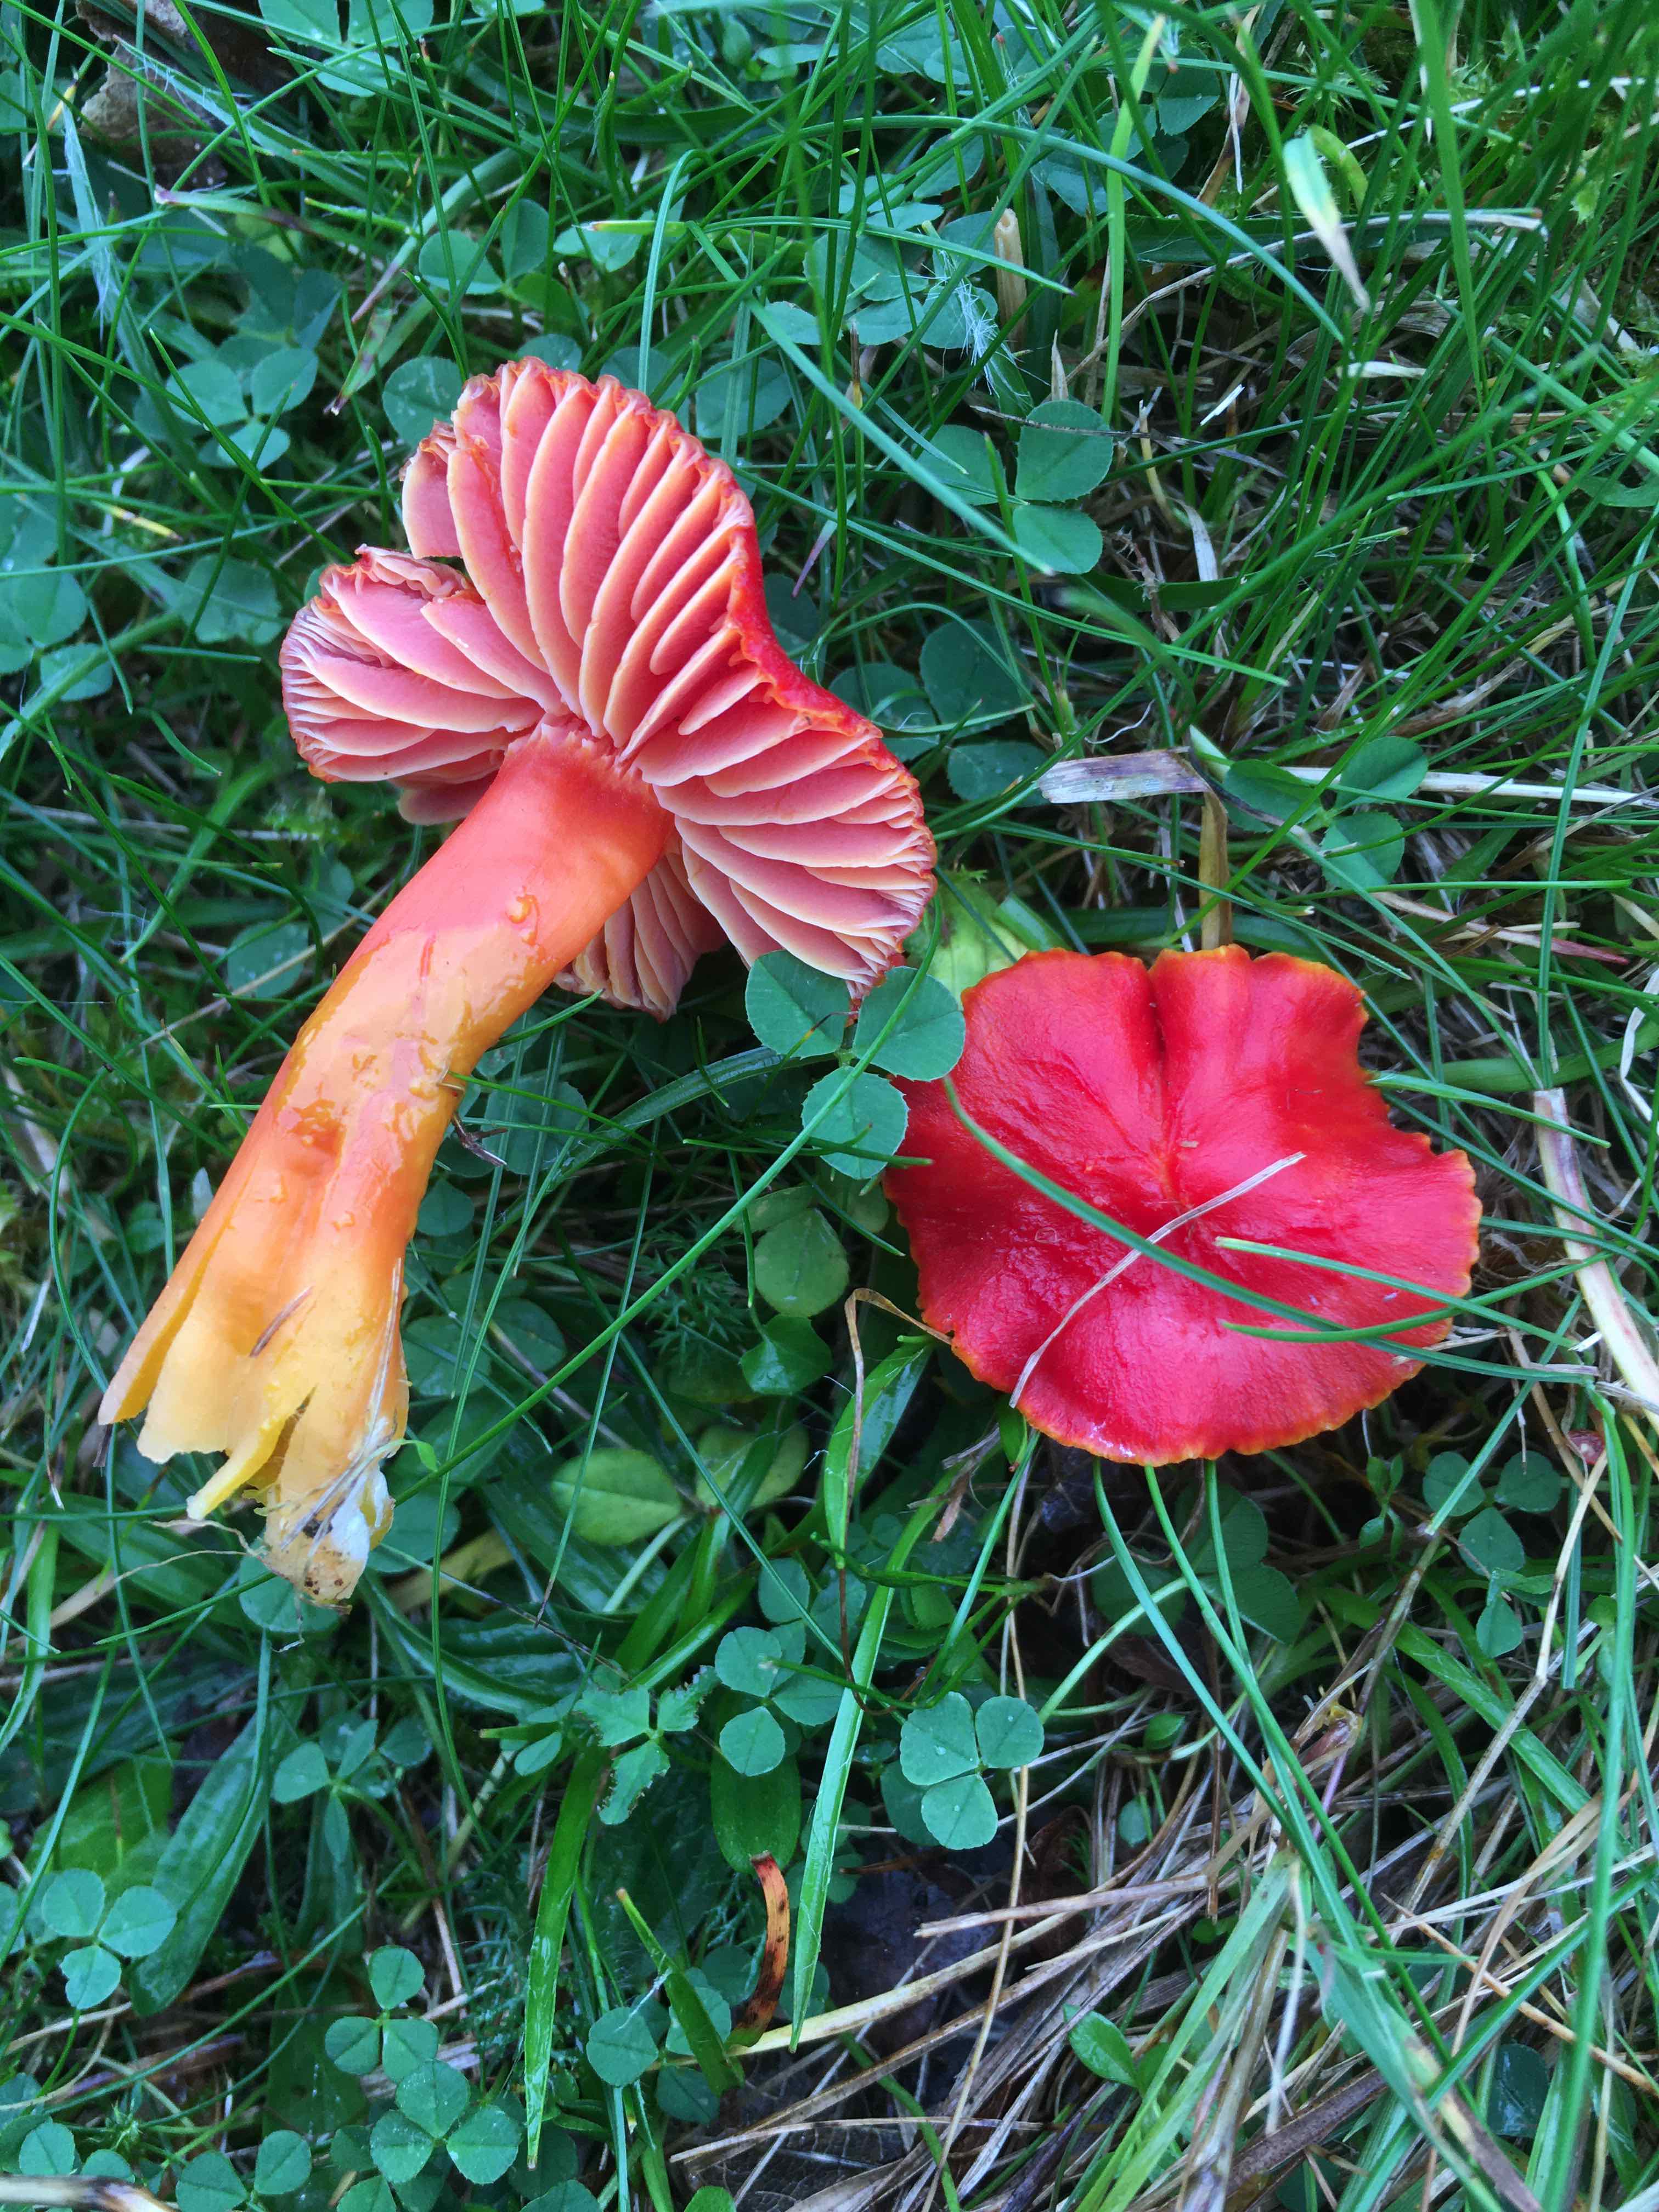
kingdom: Fungi
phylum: Basidiomycota
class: Agaricomycetes
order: Agaricales
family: Hygrophoraceae
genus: Hygrocybe
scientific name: Hygrocybe coccinea
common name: cinnober-vokshat
